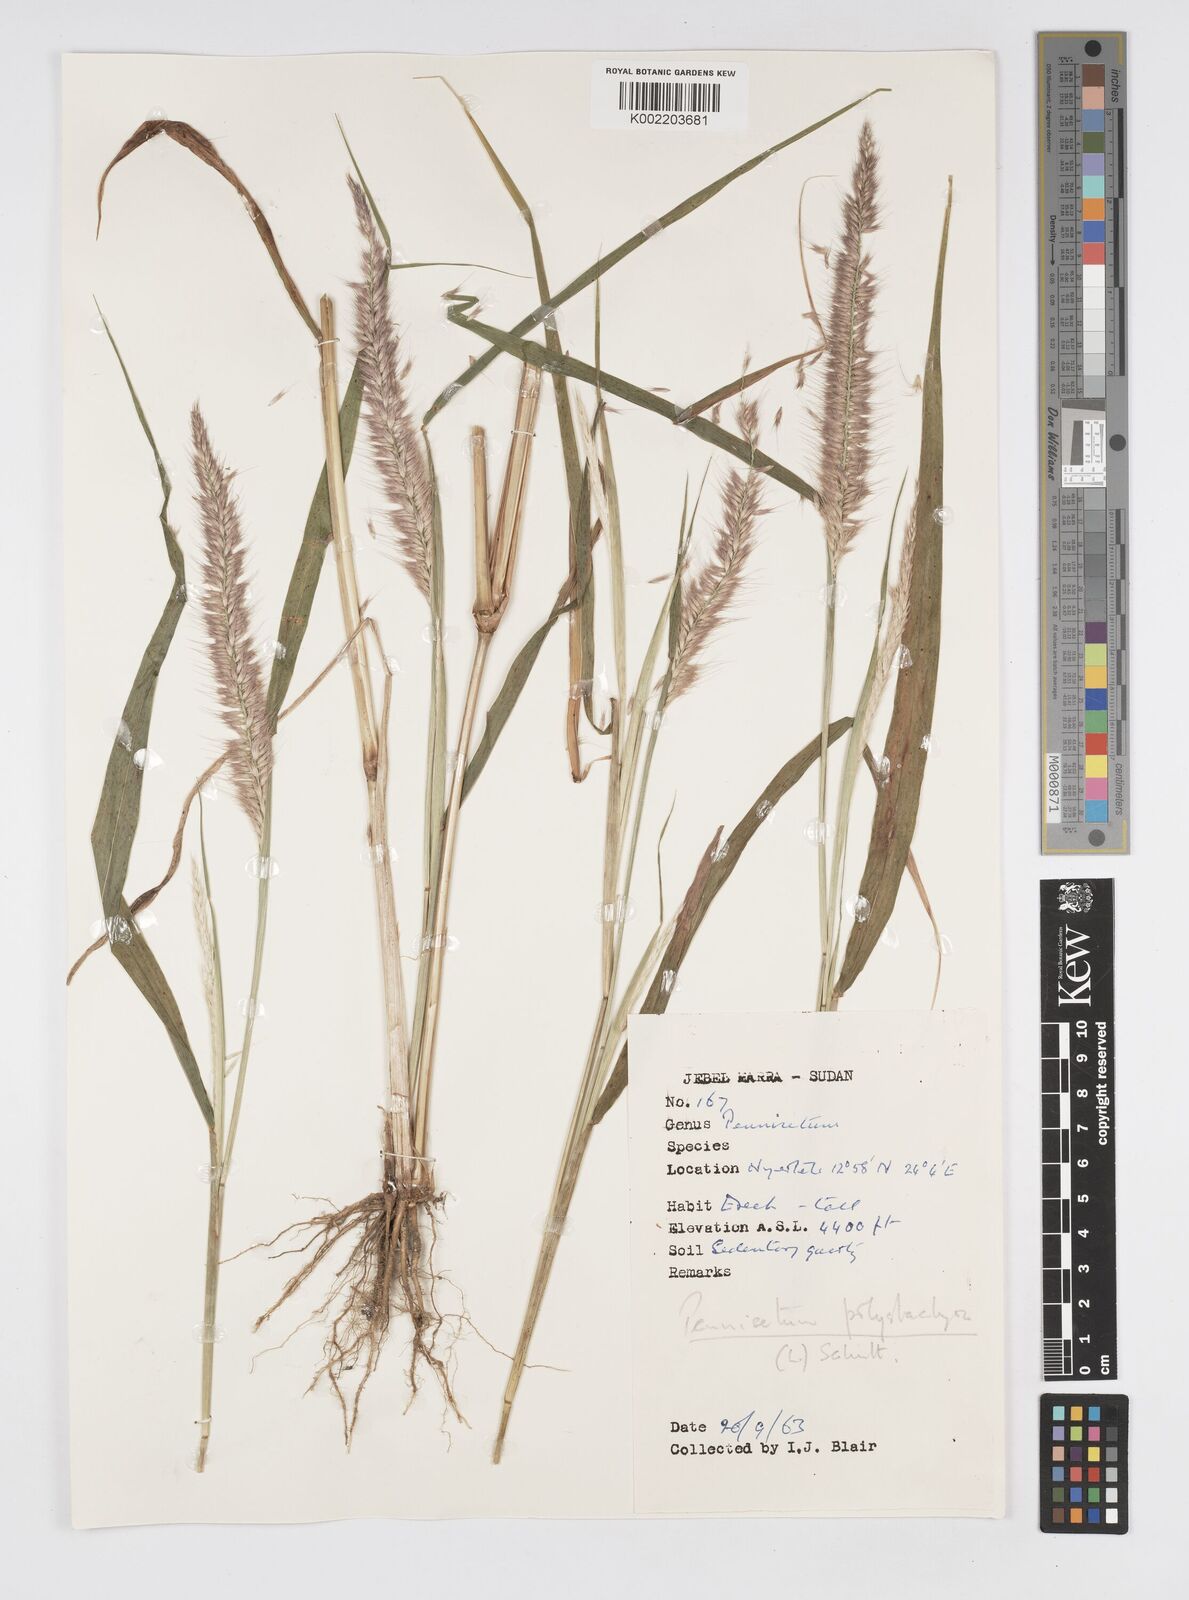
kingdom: Plantae
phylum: Tracheophyta
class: Liliopsida
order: Poales
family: Poaceae
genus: Setaria
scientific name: Setaria parviflora
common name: Knotroot bristle-grass
